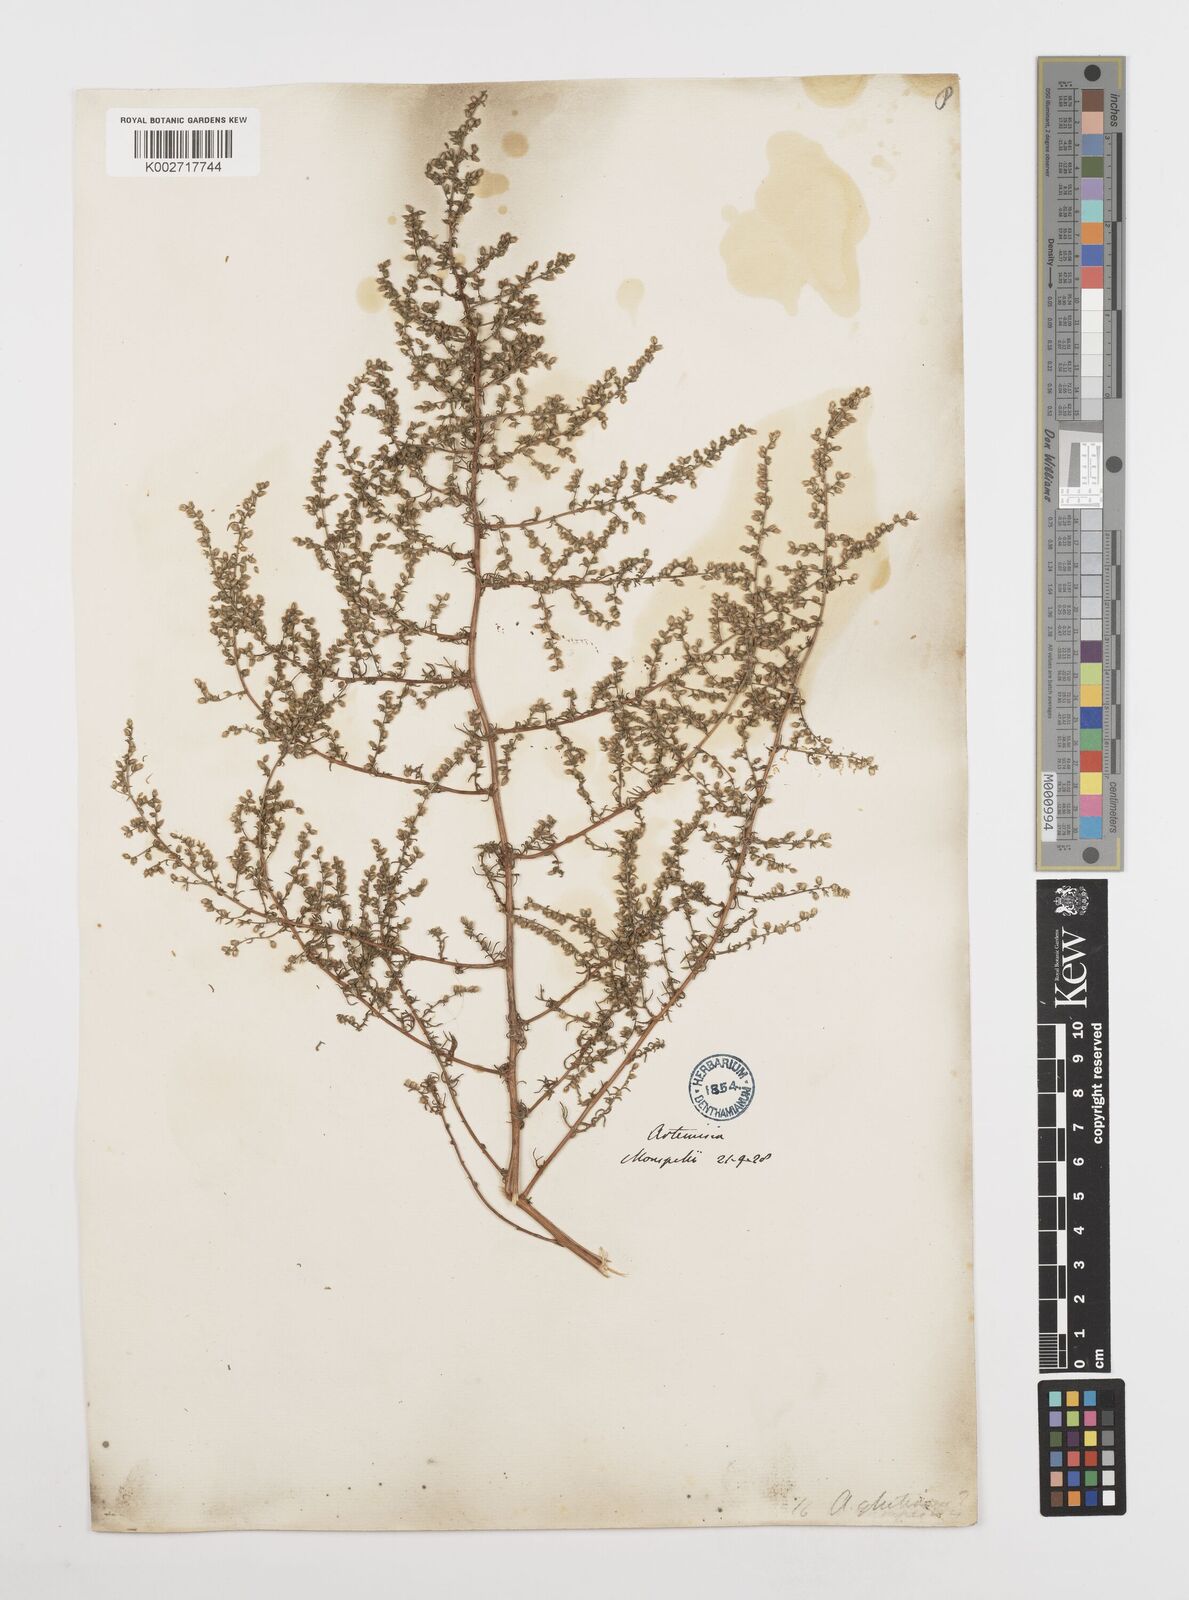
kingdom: Plantae
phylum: Tracheophyta
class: Magnoliopsida
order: Asterales
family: Asteraceae
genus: Artemisia
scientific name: Artemisia campestris
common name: Field wormwood
